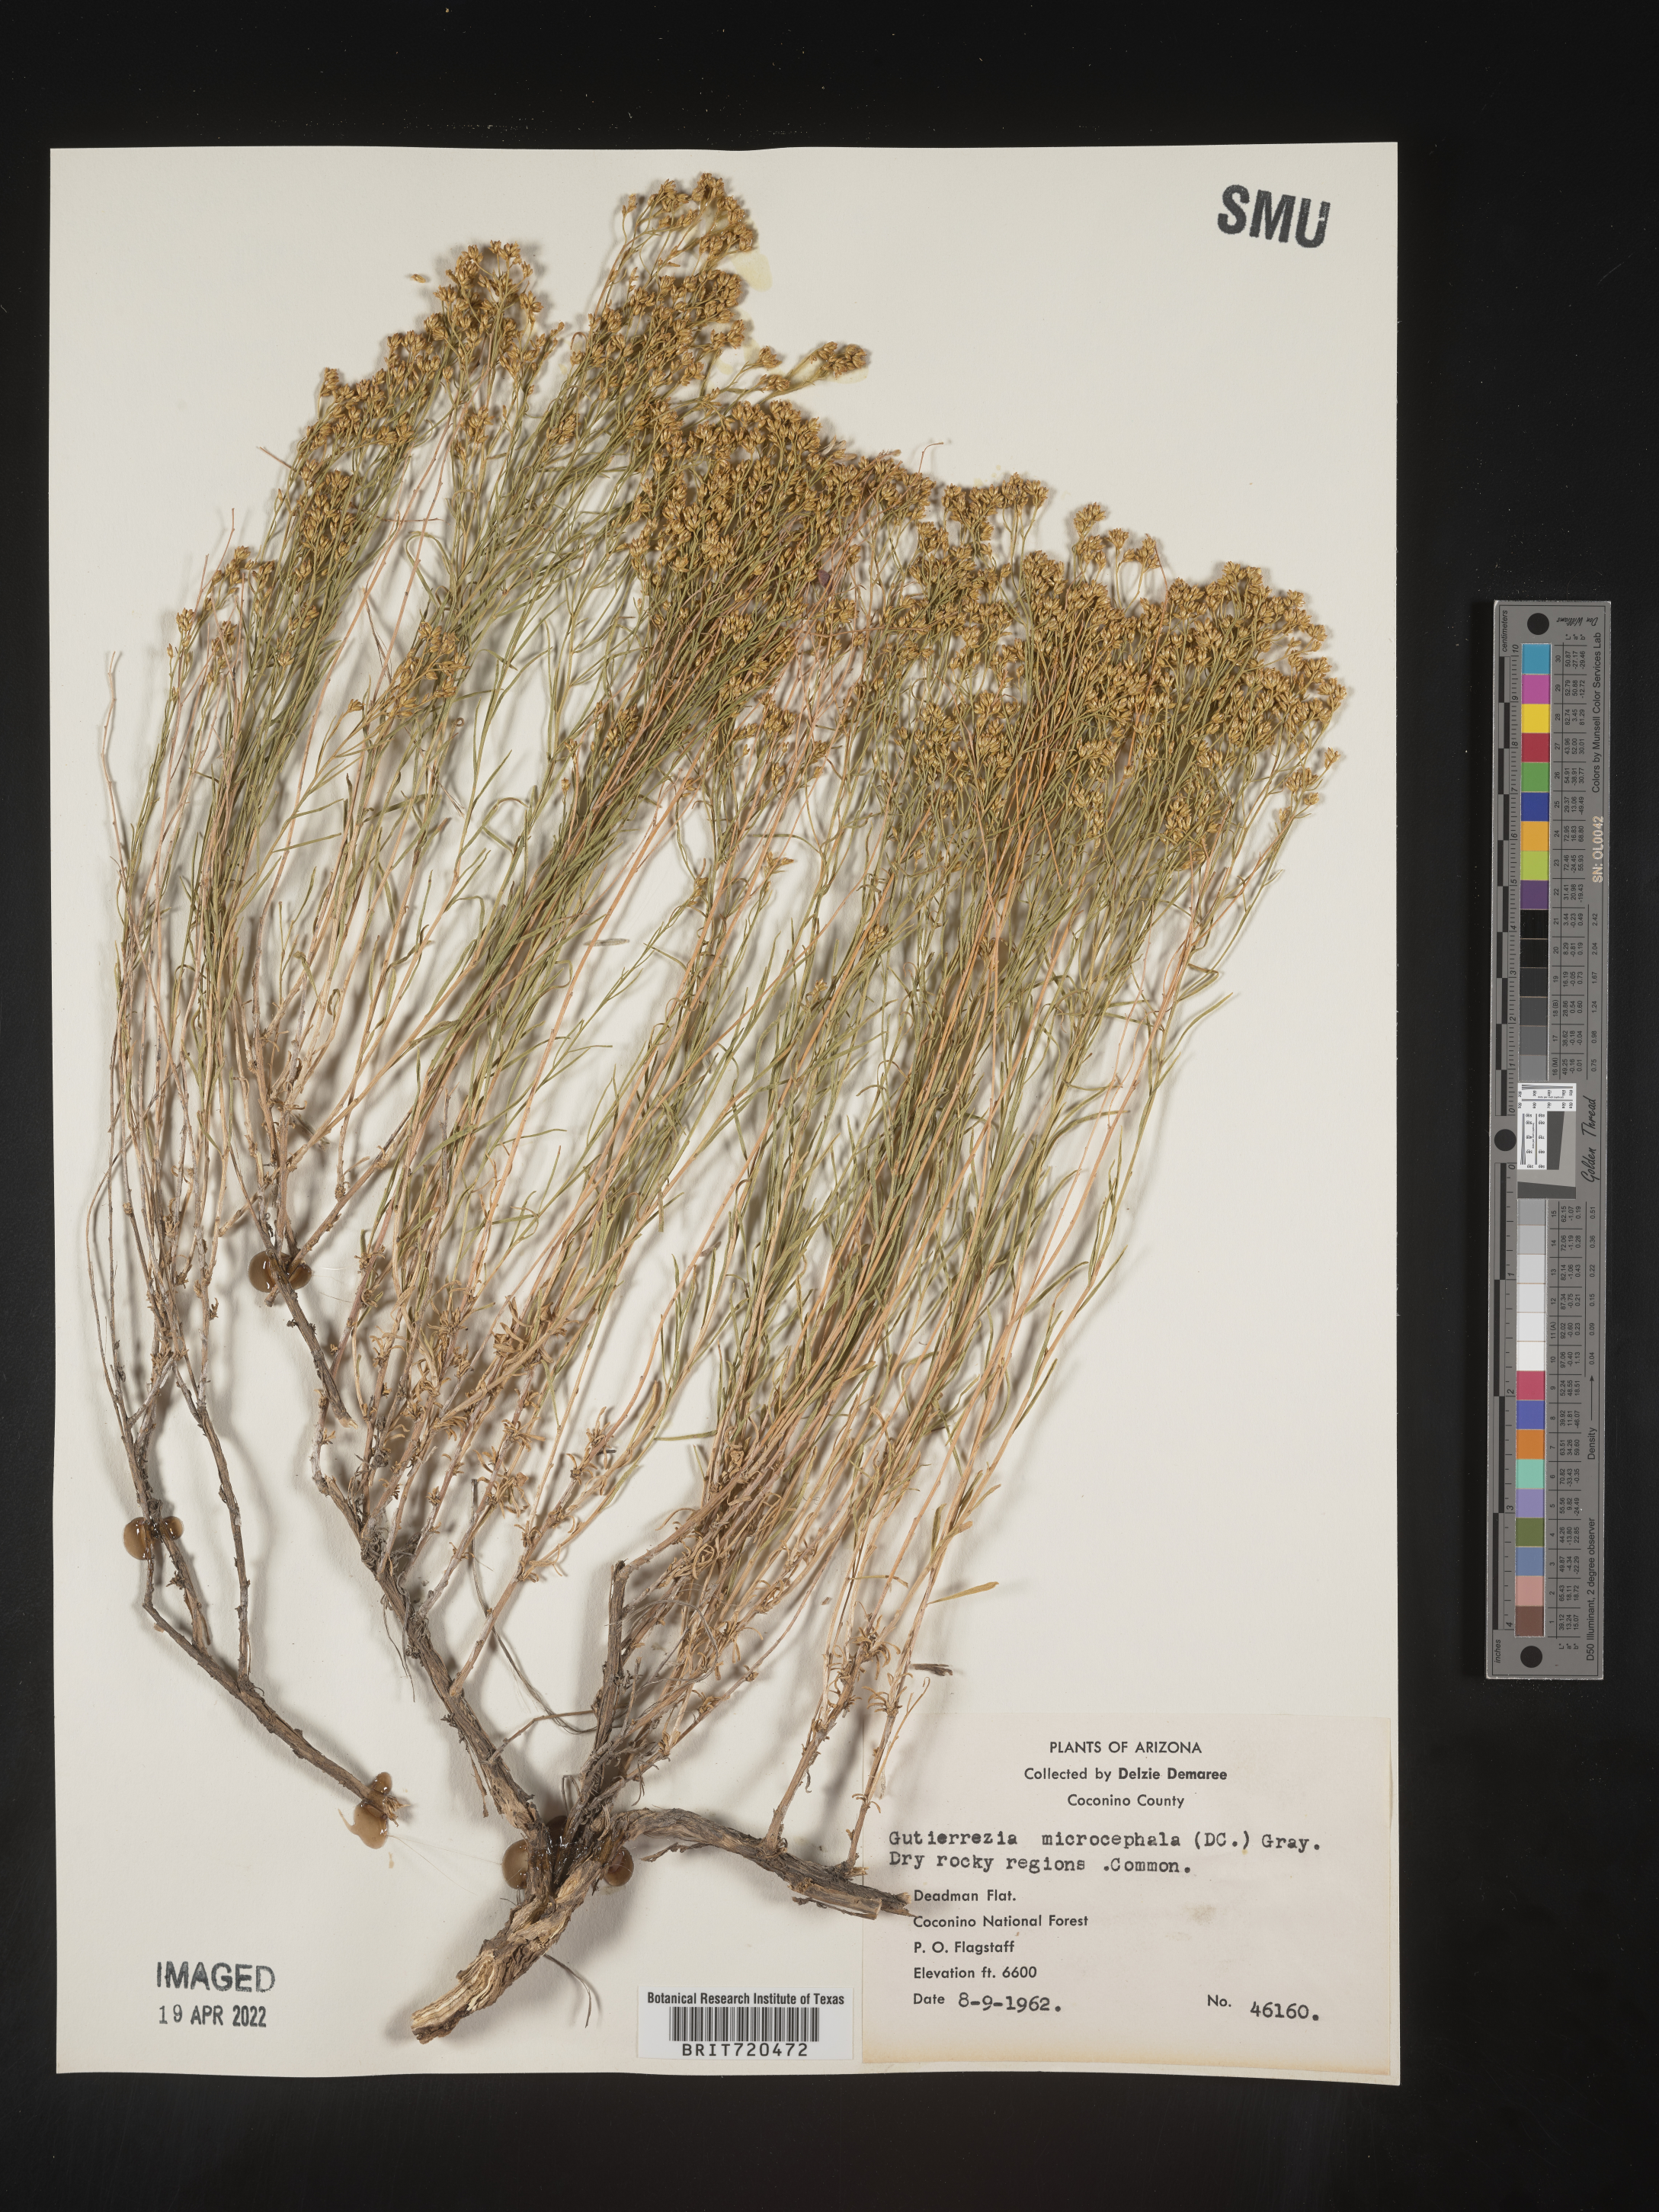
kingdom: Plantae
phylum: Tracheophyta
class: Magnoliopsida
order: Asterales
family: Asteraceae
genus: Gutierrezia
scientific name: Gutierrezia microcephala
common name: Thread snakeweed
